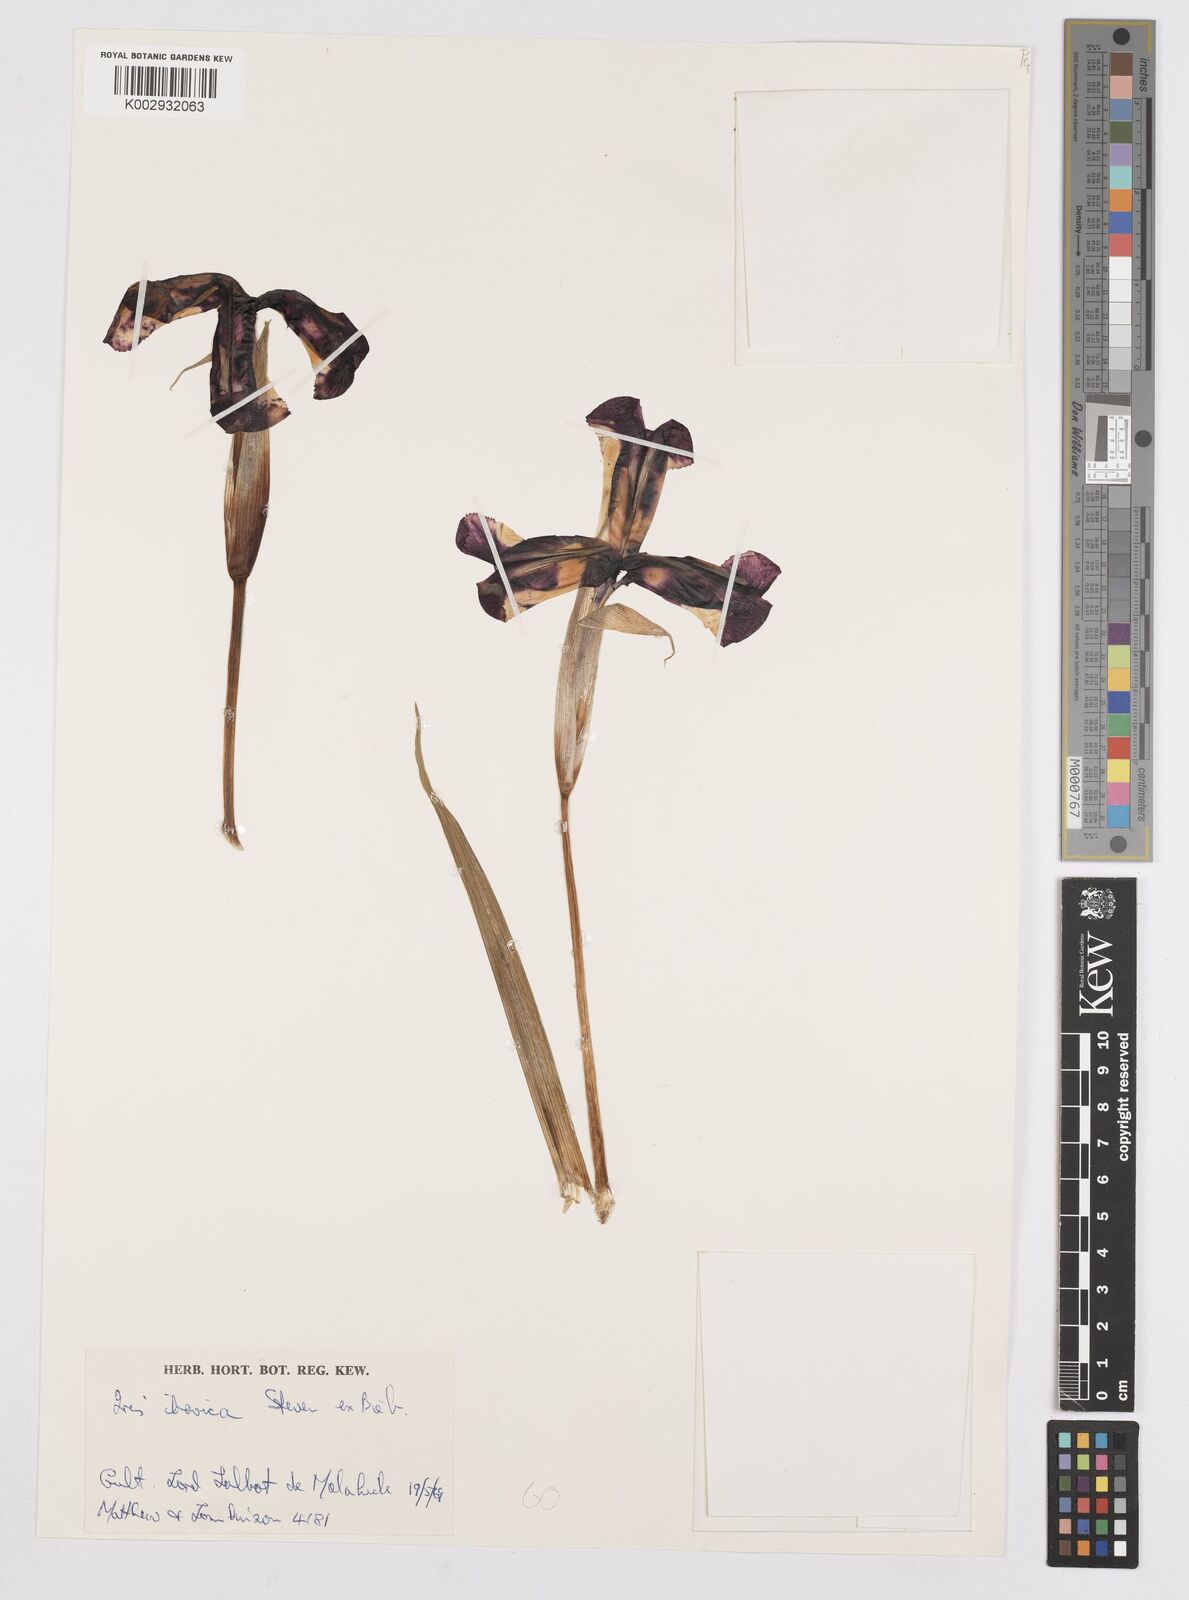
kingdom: Plantae
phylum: Tracheophyta
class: Liliopsida
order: Asparagales
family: Iridaceae
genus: Iris
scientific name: Iris iberica
